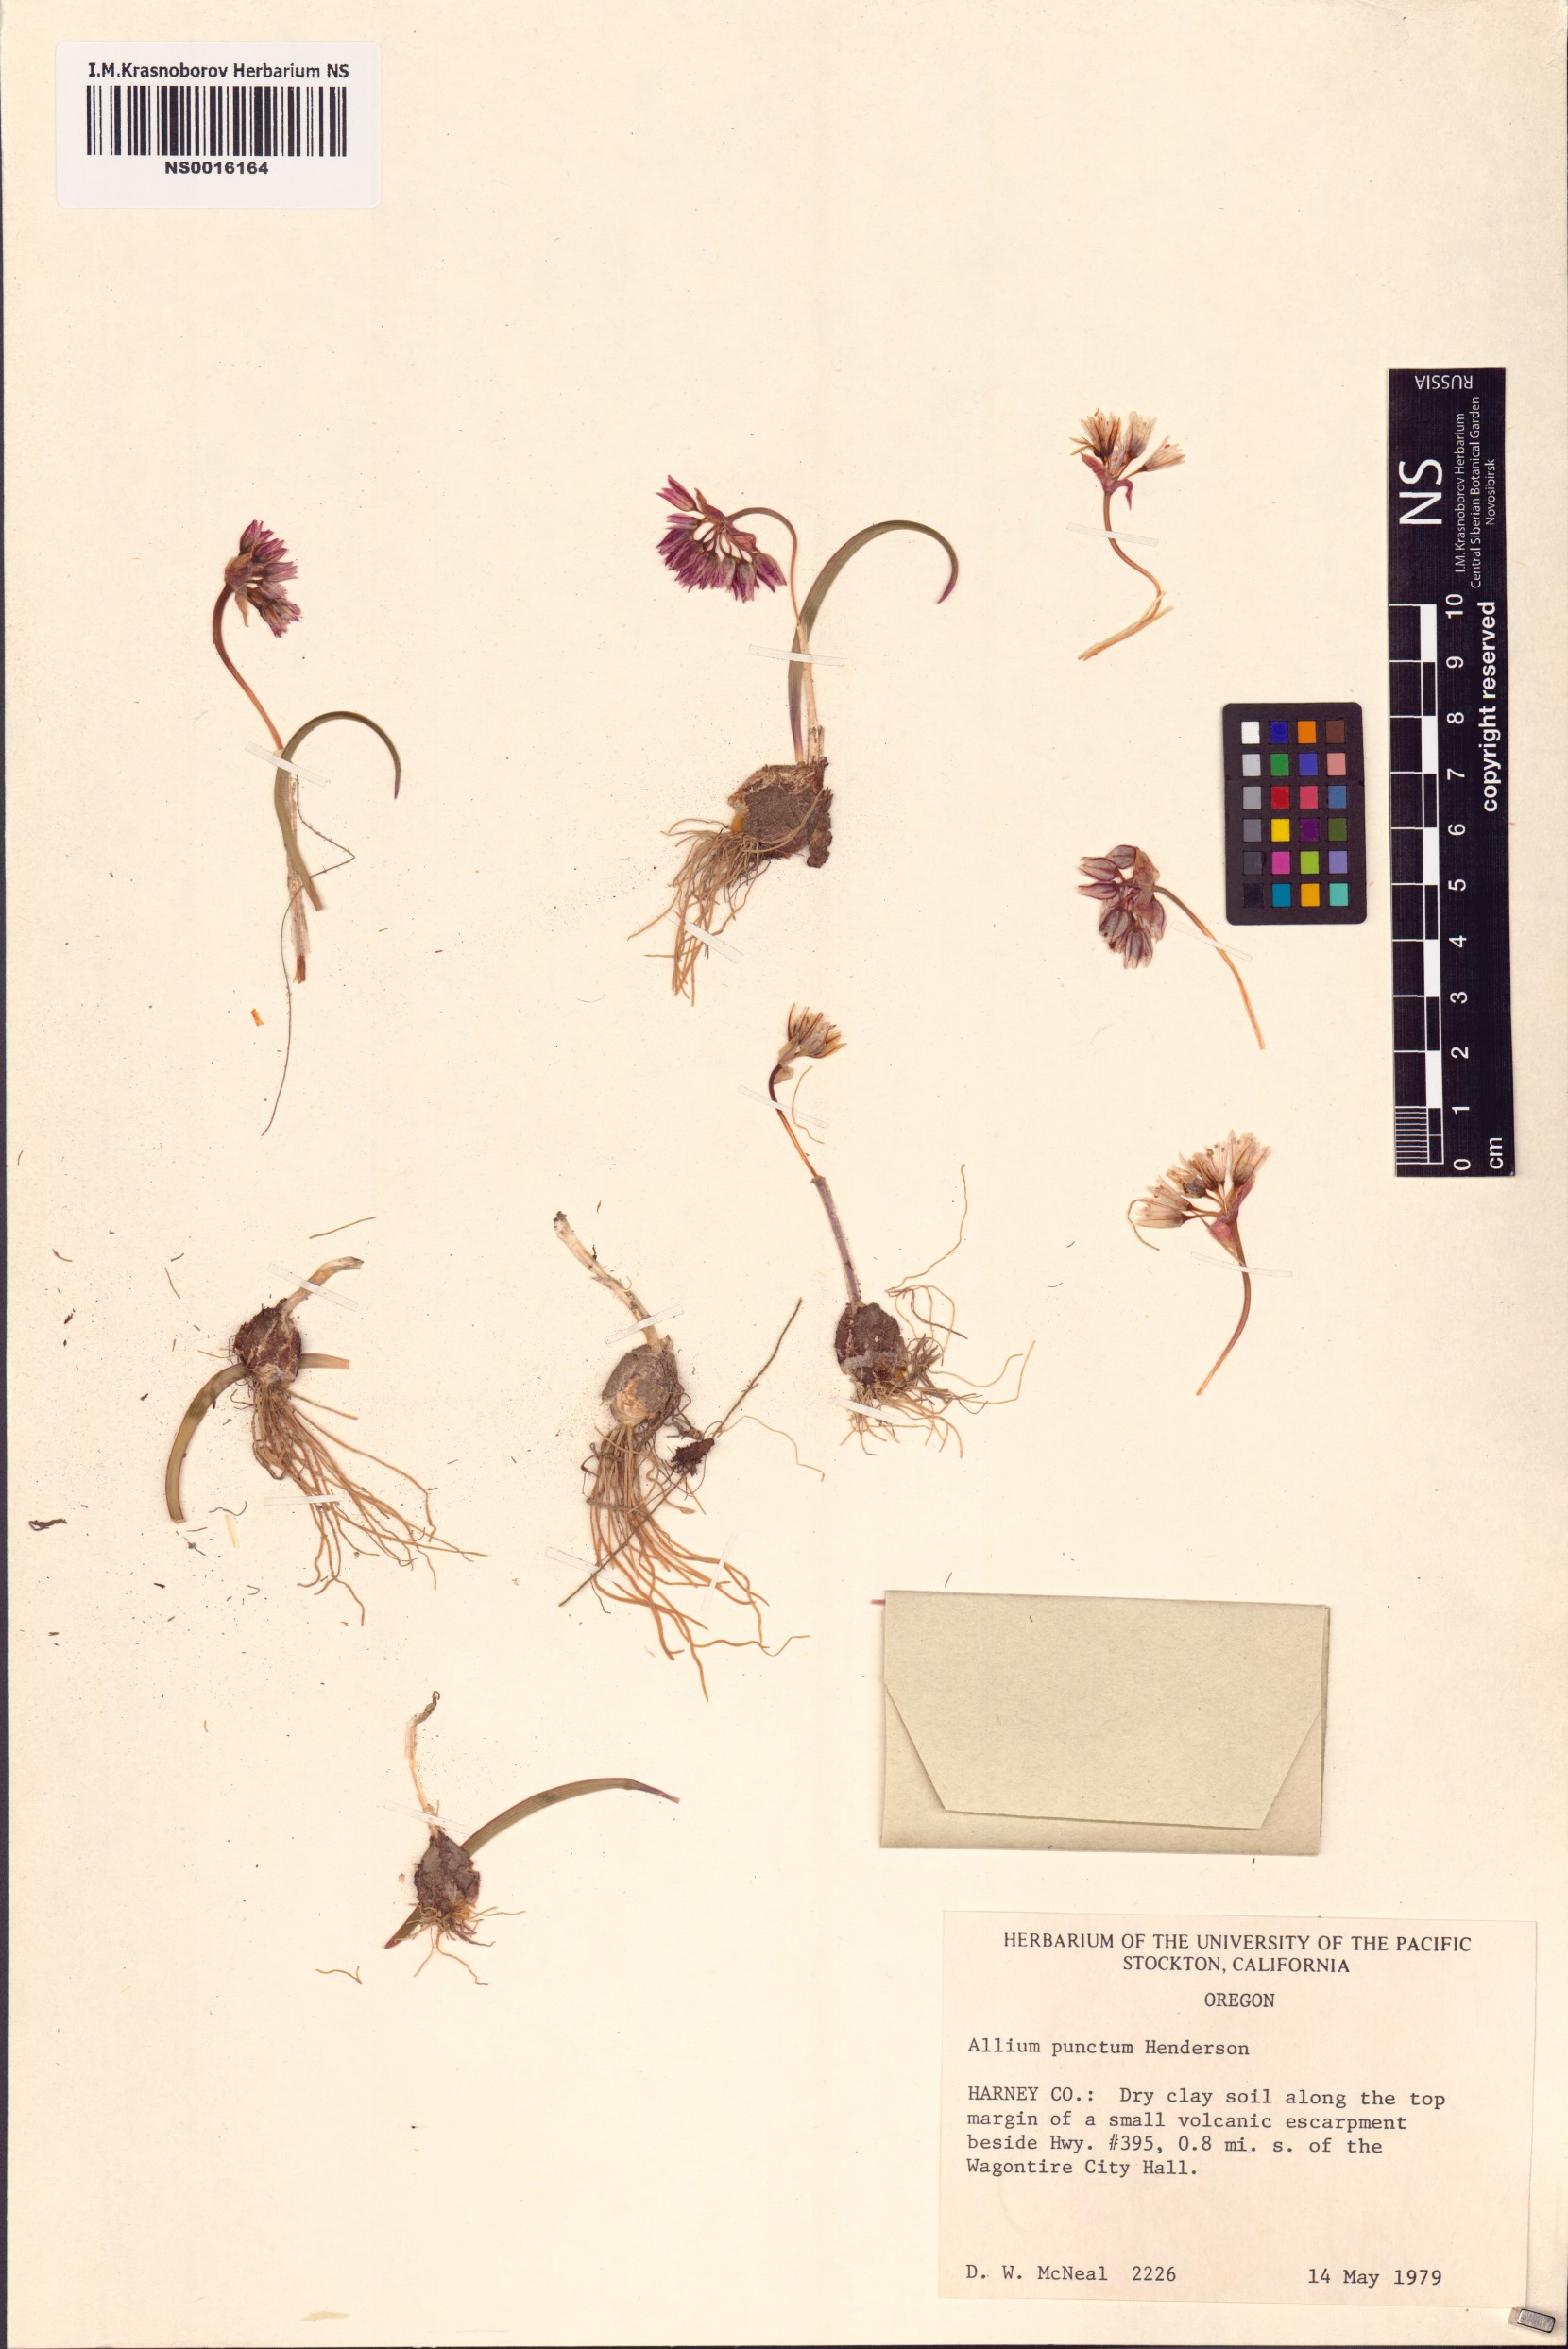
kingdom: Plantae
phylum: Tracheophyta
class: Liliopsida
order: Asparagales
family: Amaryllidaceae
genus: Allium
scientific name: Allium punctum
